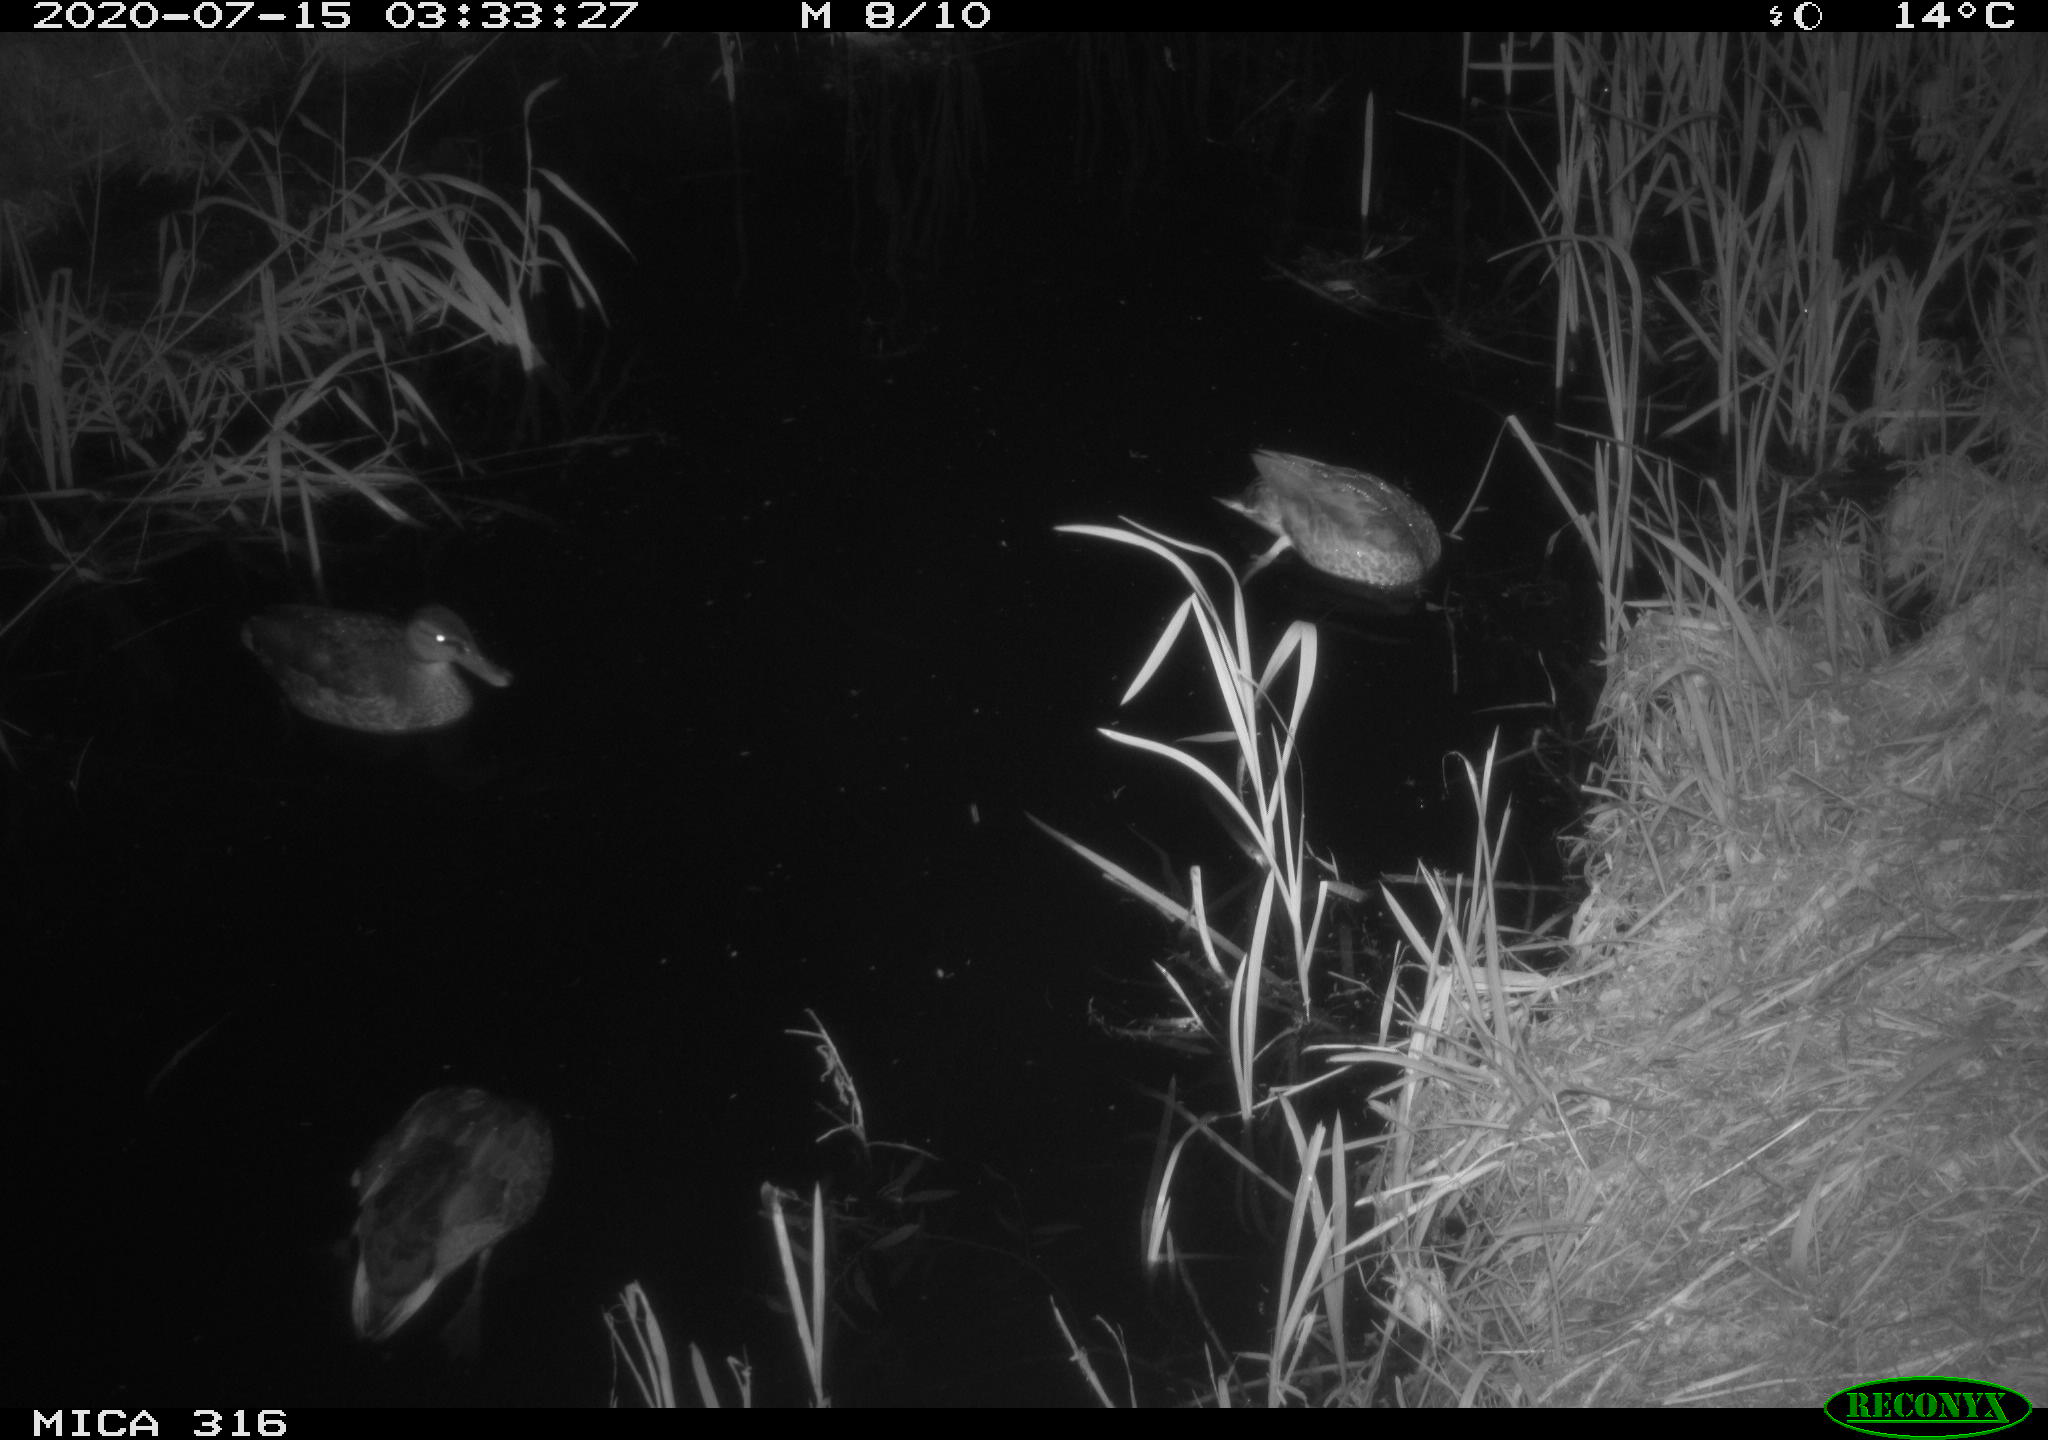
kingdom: Animalia
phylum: Chordata
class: Aves
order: Anseriformes
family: Anatidae
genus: Anas
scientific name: Anas platyrhynchos
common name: Mallard
